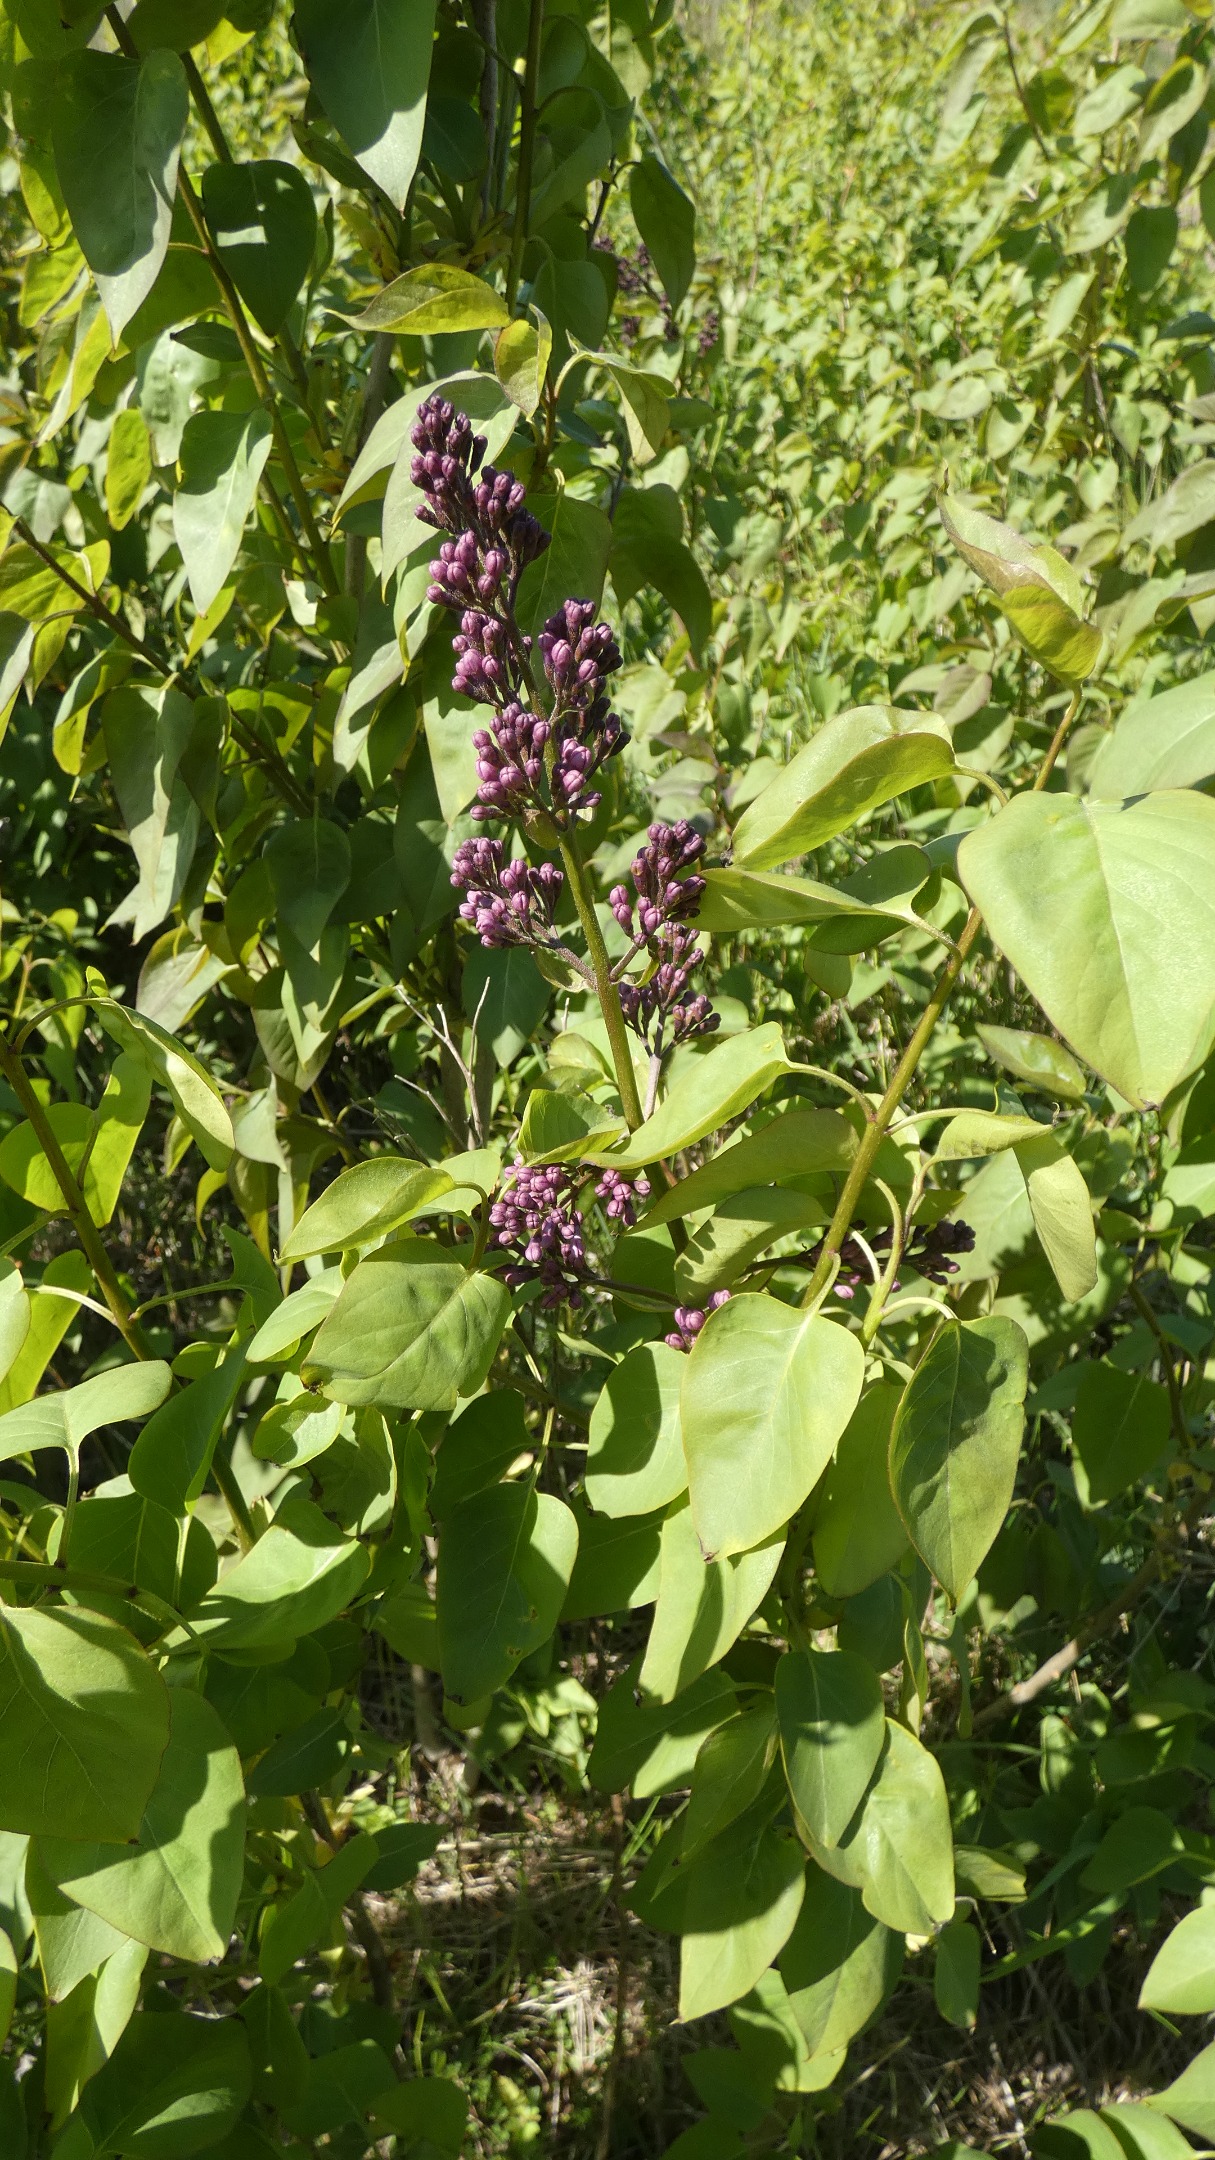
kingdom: Plantae
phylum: Tracheophyta
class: Magnoliopsida
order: Lamiales
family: Oleaceae
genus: Syringa
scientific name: Syringa vulgaris
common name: Syren
